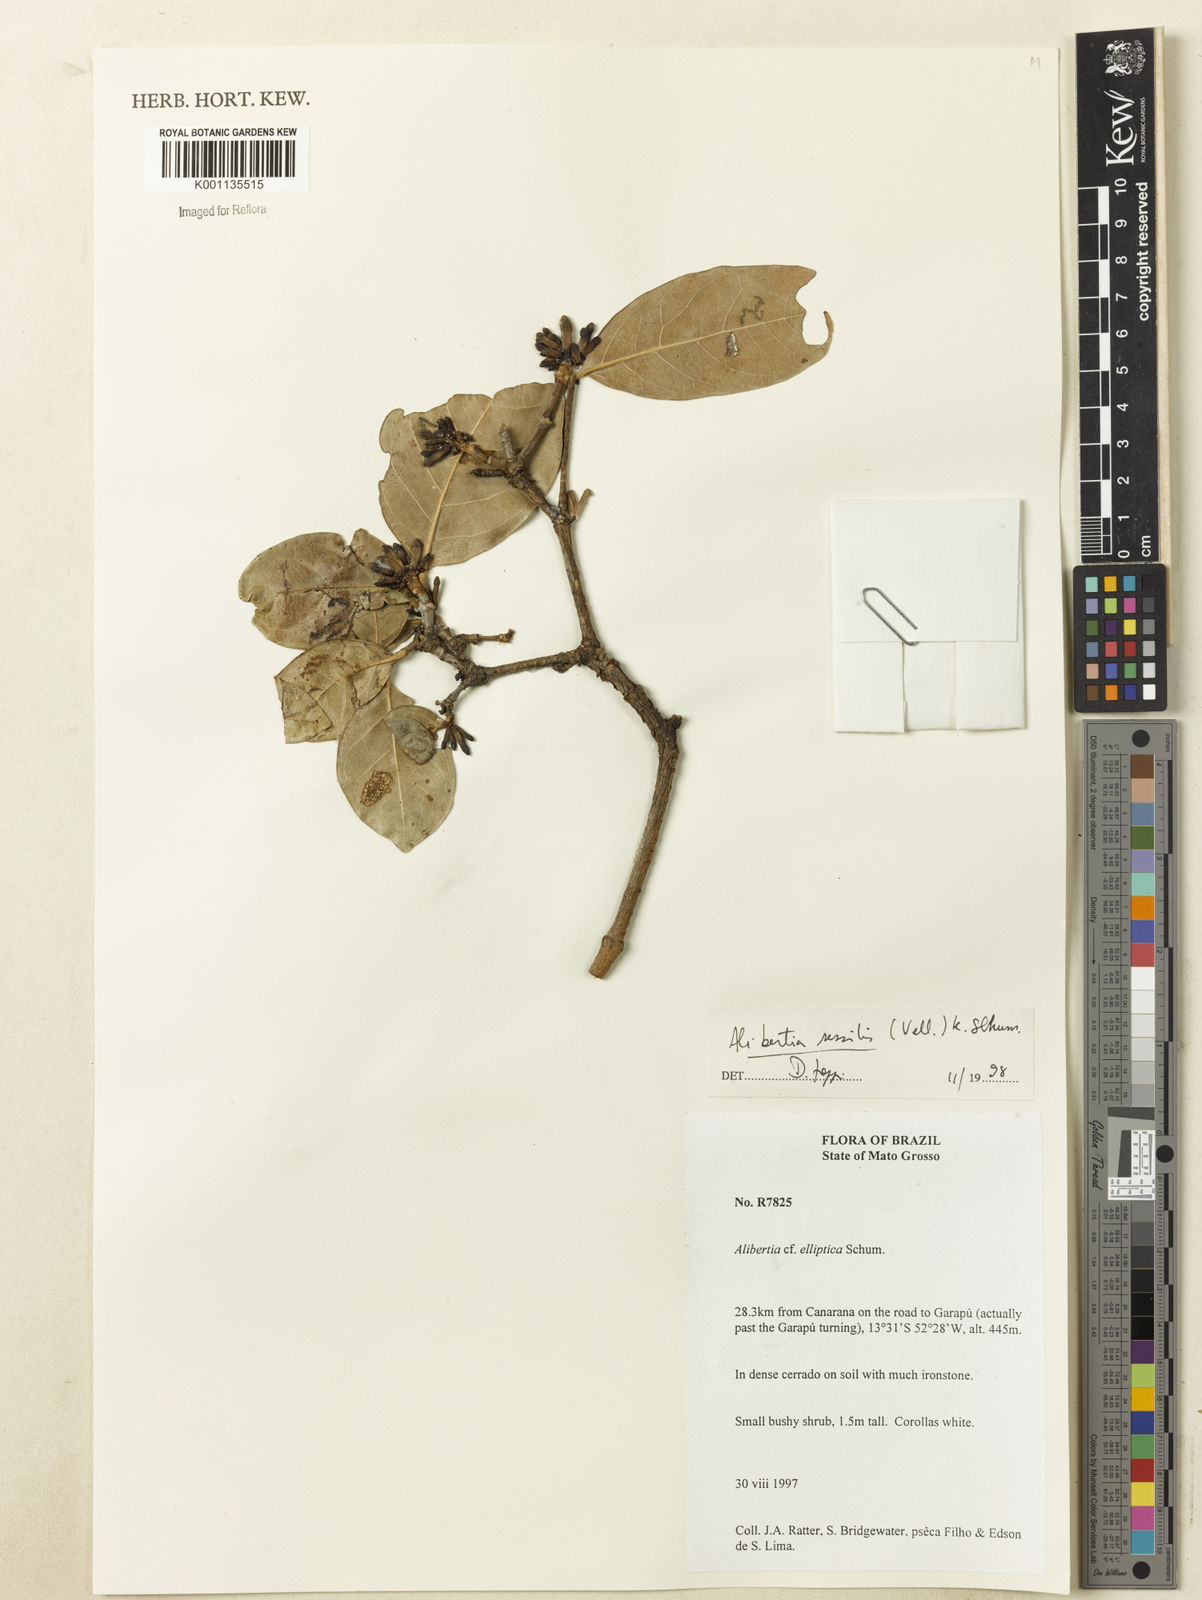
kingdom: Plantae
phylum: Tracheophyta
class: Magnoliopsida
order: Gentianales
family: Rubiaceae
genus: Cordiera
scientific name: Cordiera sessilis
